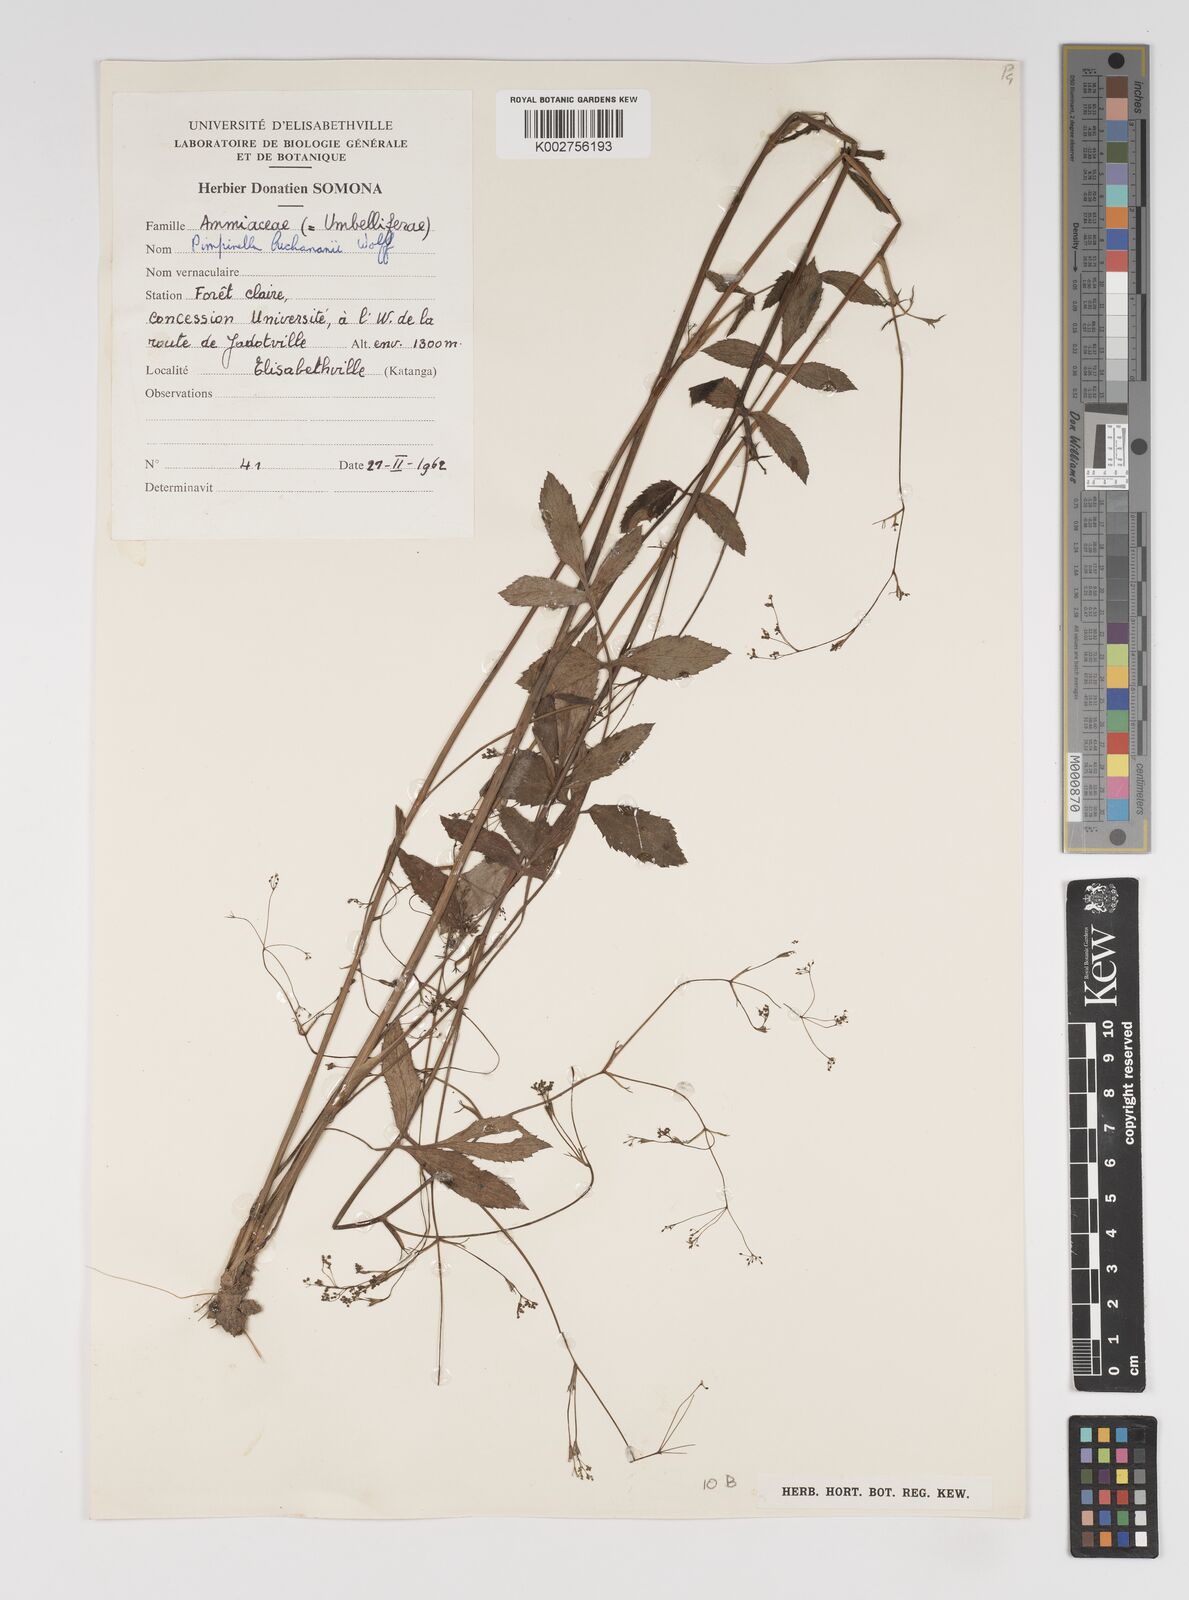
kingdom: Plantae
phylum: Tracheophyta
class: Magnoliopsida
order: Apiales
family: Apiaceae
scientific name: Apiaceae
